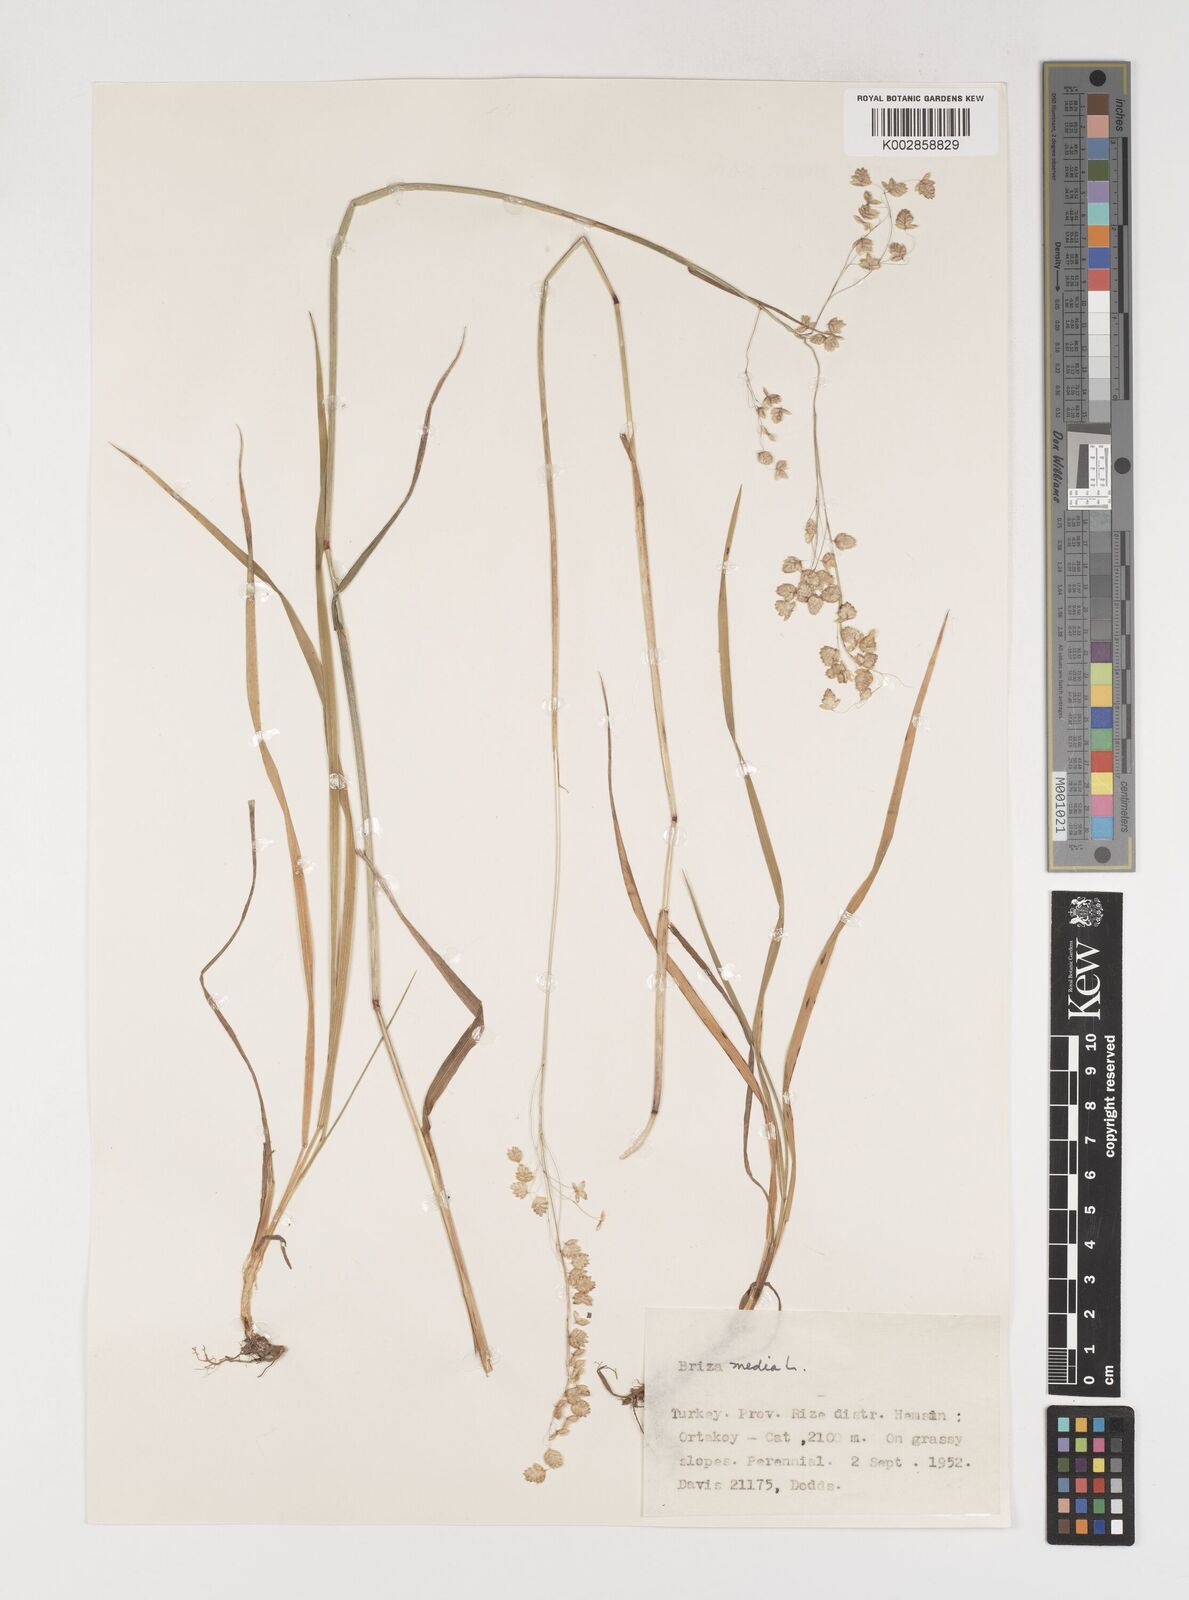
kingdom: Plantae
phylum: Tracheophyta
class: Liliopsida
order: Poales
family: Poaceae
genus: Briza
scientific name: Briza media
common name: Quaking grass
